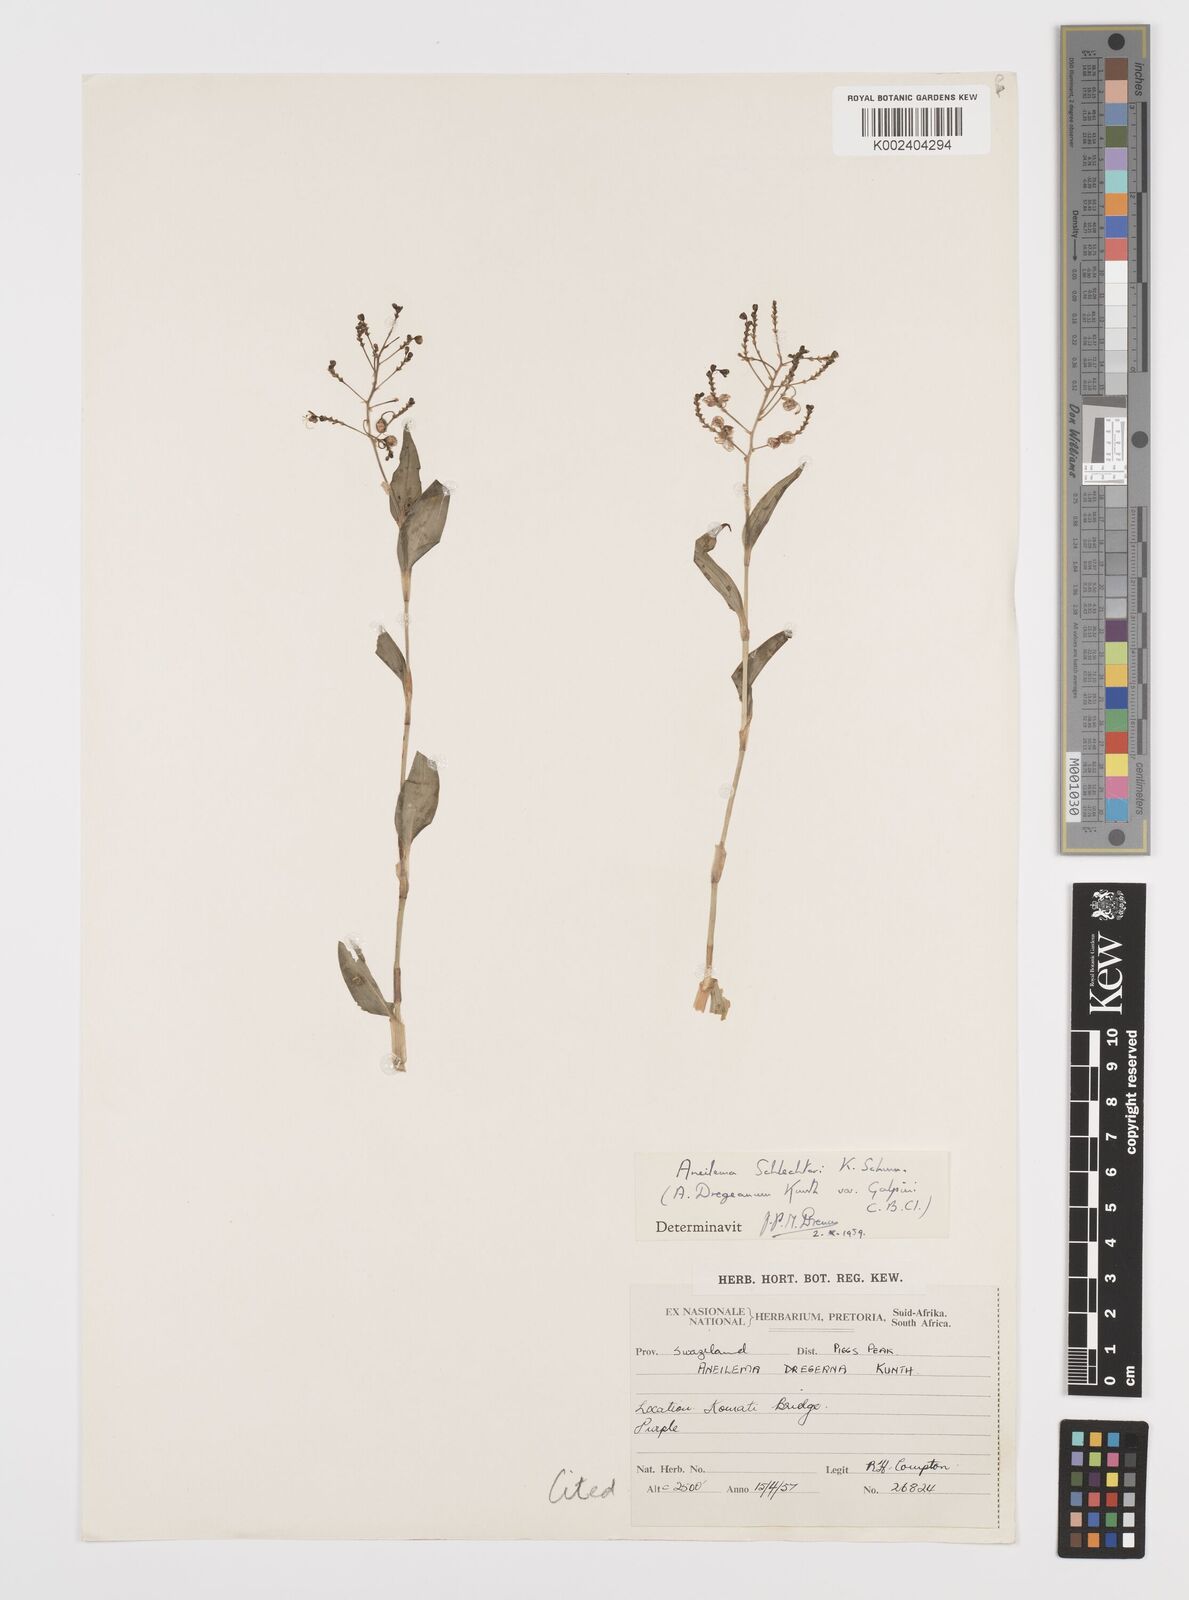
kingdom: Plantae
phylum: Tracheophyta
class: Liliopsida
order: Commelinales
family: Commelinaceae
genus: Aneilema
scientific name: Aneilema brunneospermum
